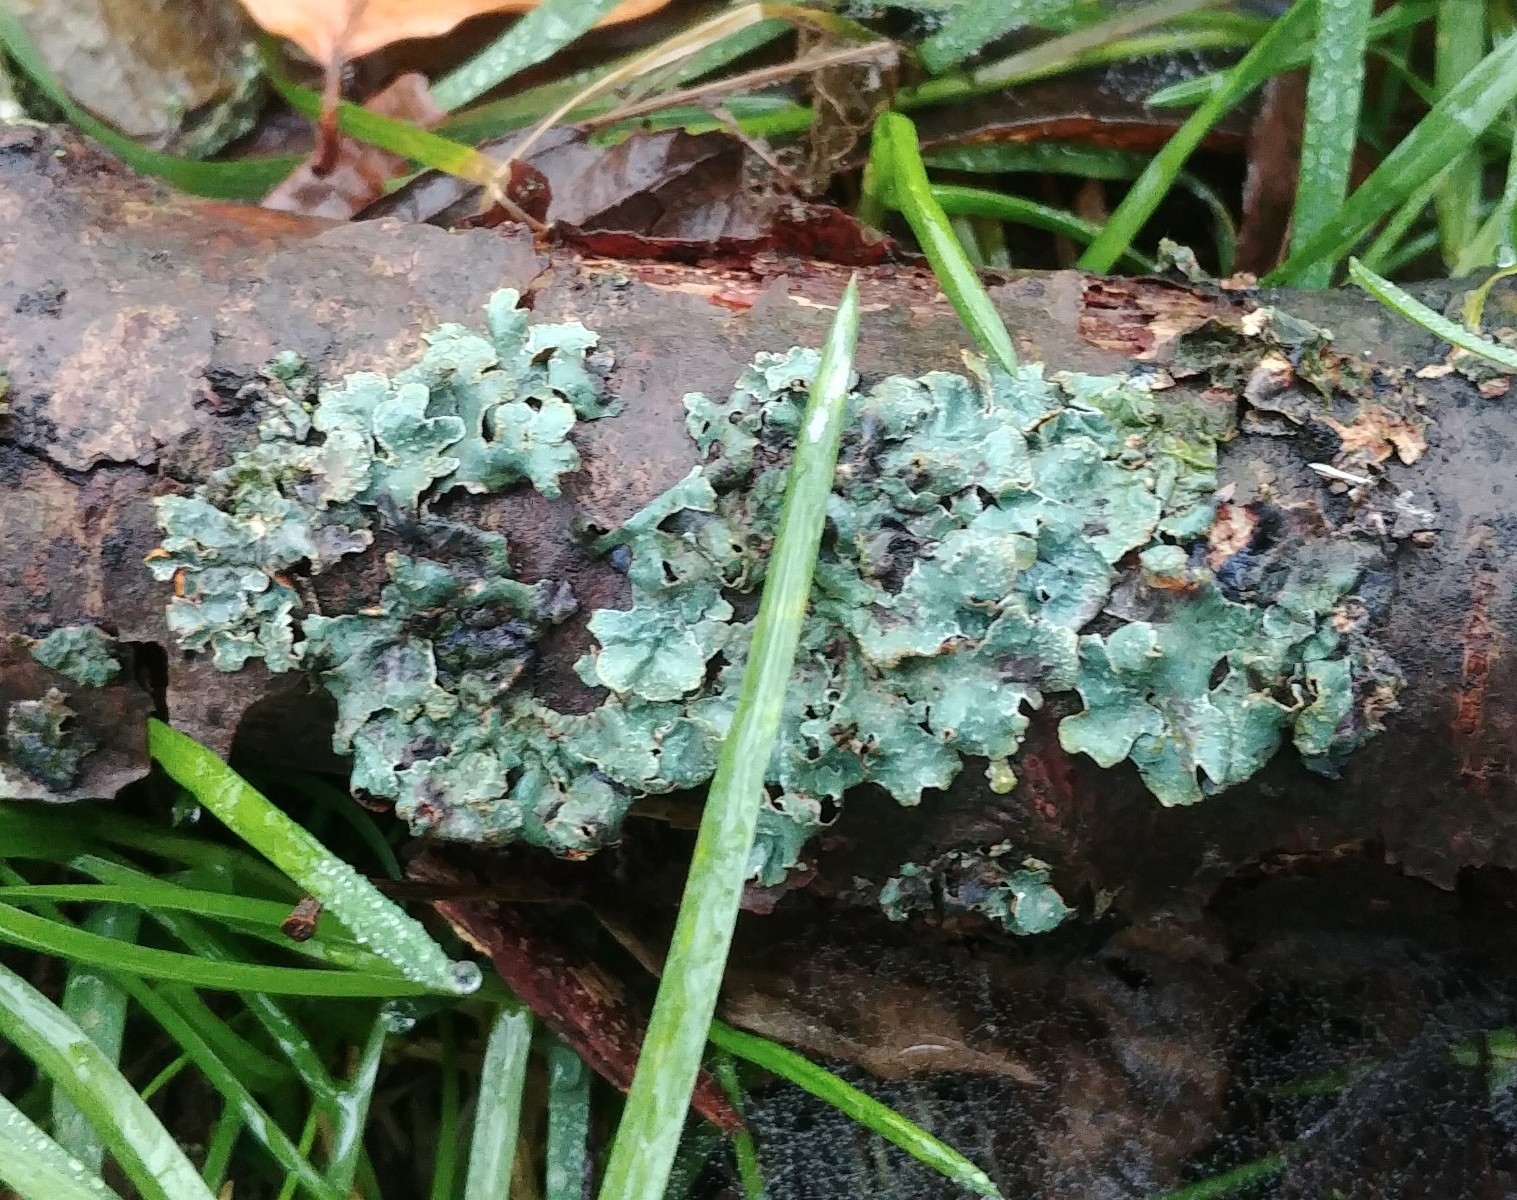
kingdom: Fungi
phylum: Ascomycota
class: Lecanoromycetes
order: Lecanorales
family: Parmeliaceae
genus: Parmelia
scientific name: Parmelia sulcata
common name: rynket skållav
